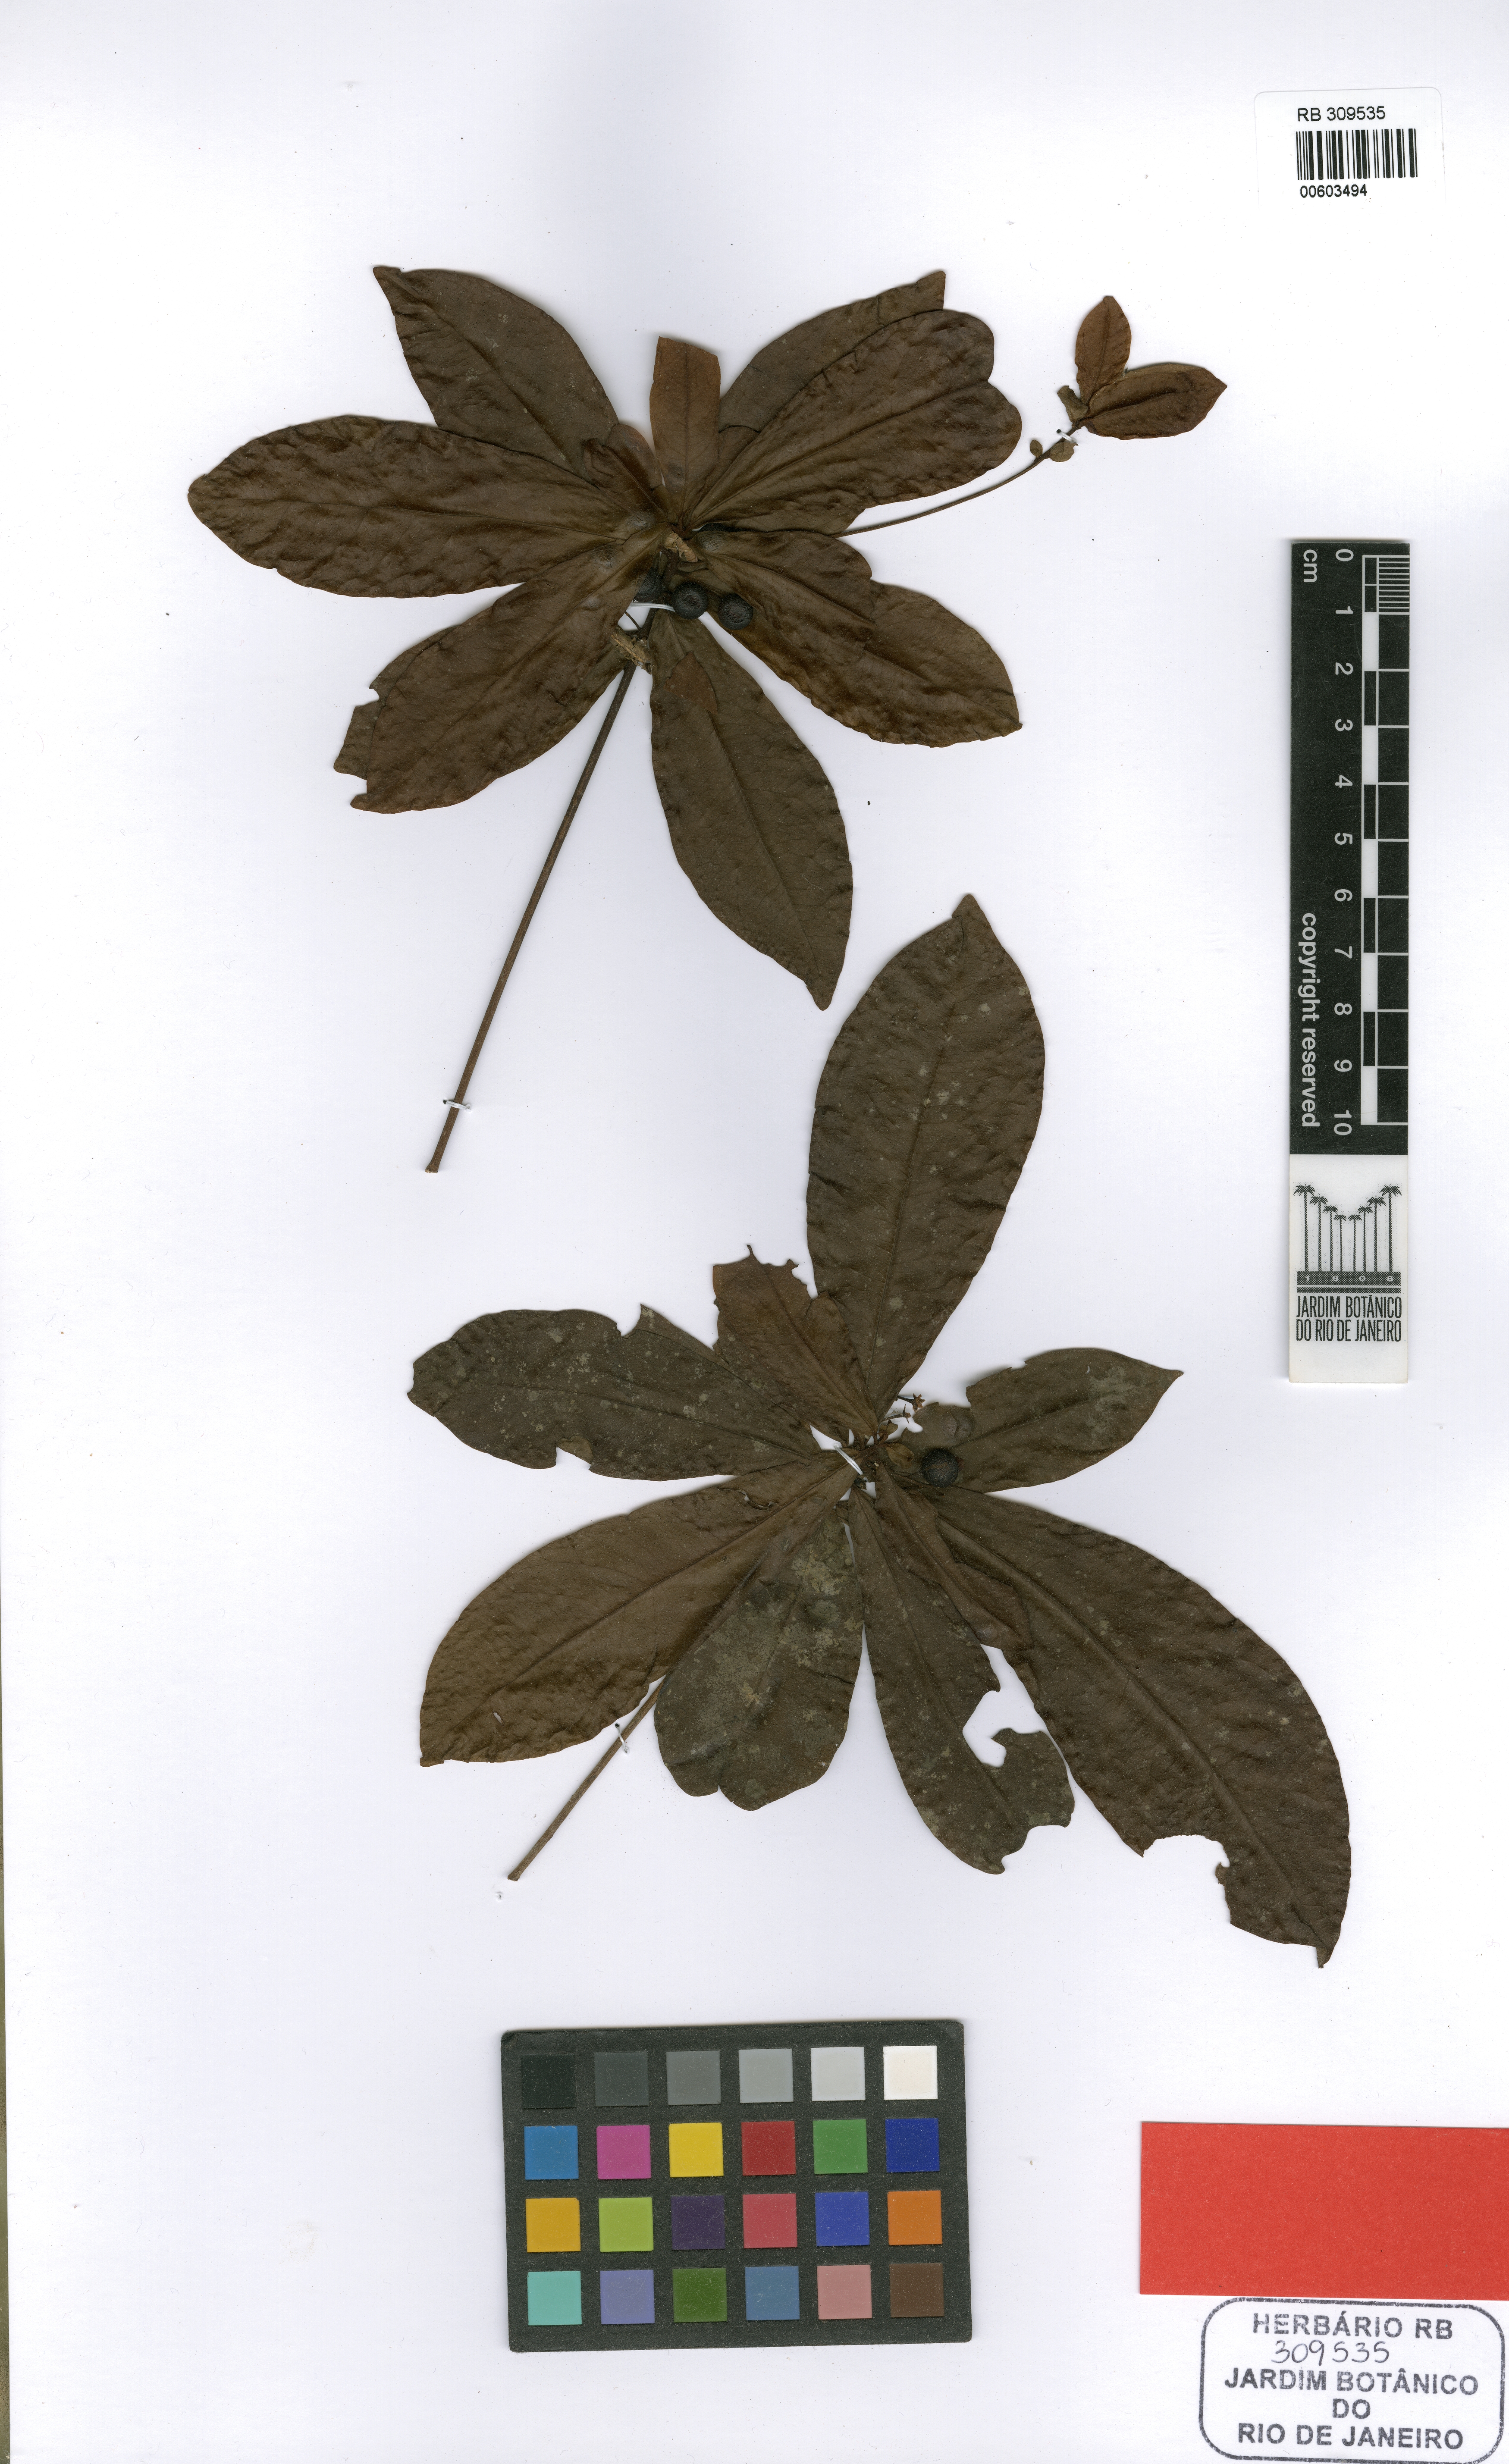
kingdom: Plantae
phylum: Tracheophyta
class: Magnoliopsida
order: Ericales
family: Primulaceae
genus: Cybianthus
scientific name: Cybianthus membranaceus
